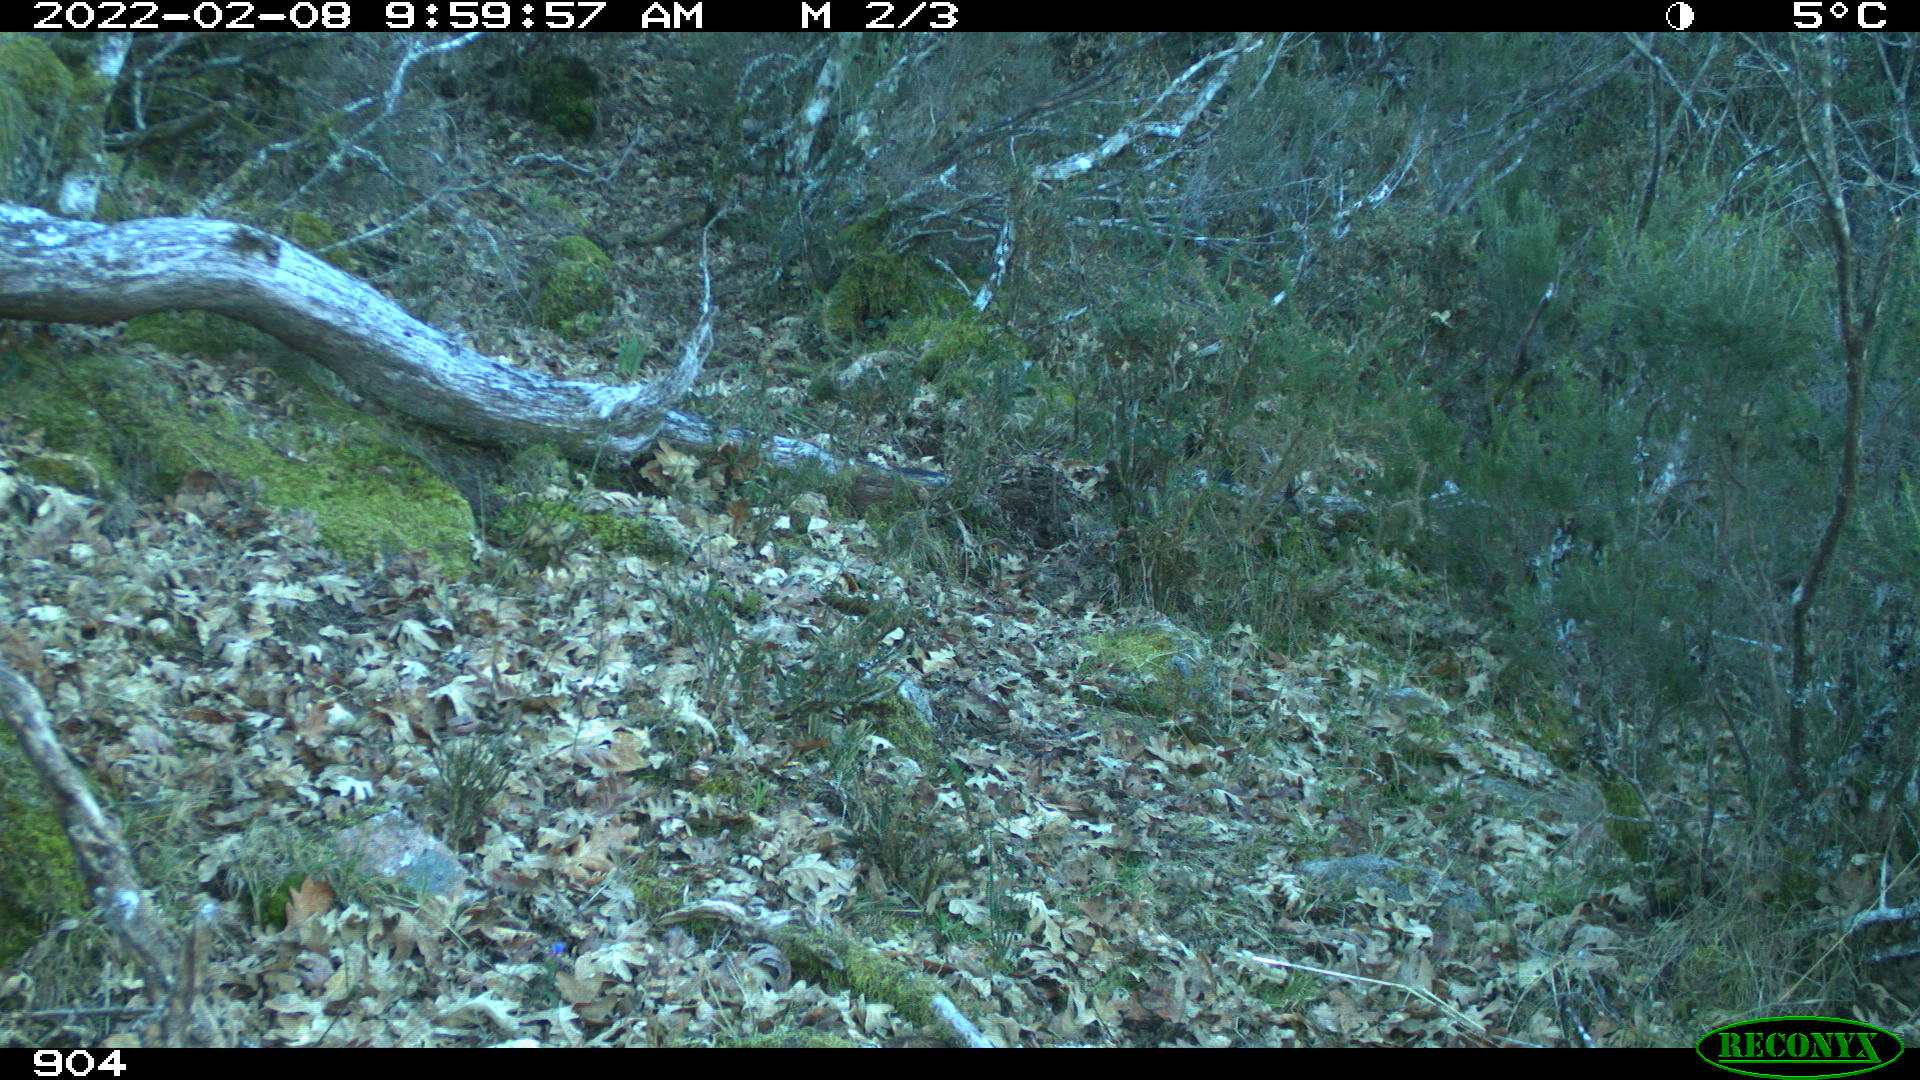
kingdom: Animalia
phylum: Chordata
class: Mammalia
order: Artiodactyla
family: Bovidae
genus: Bos
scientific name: Bos taurus
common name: Domesticated cattle
